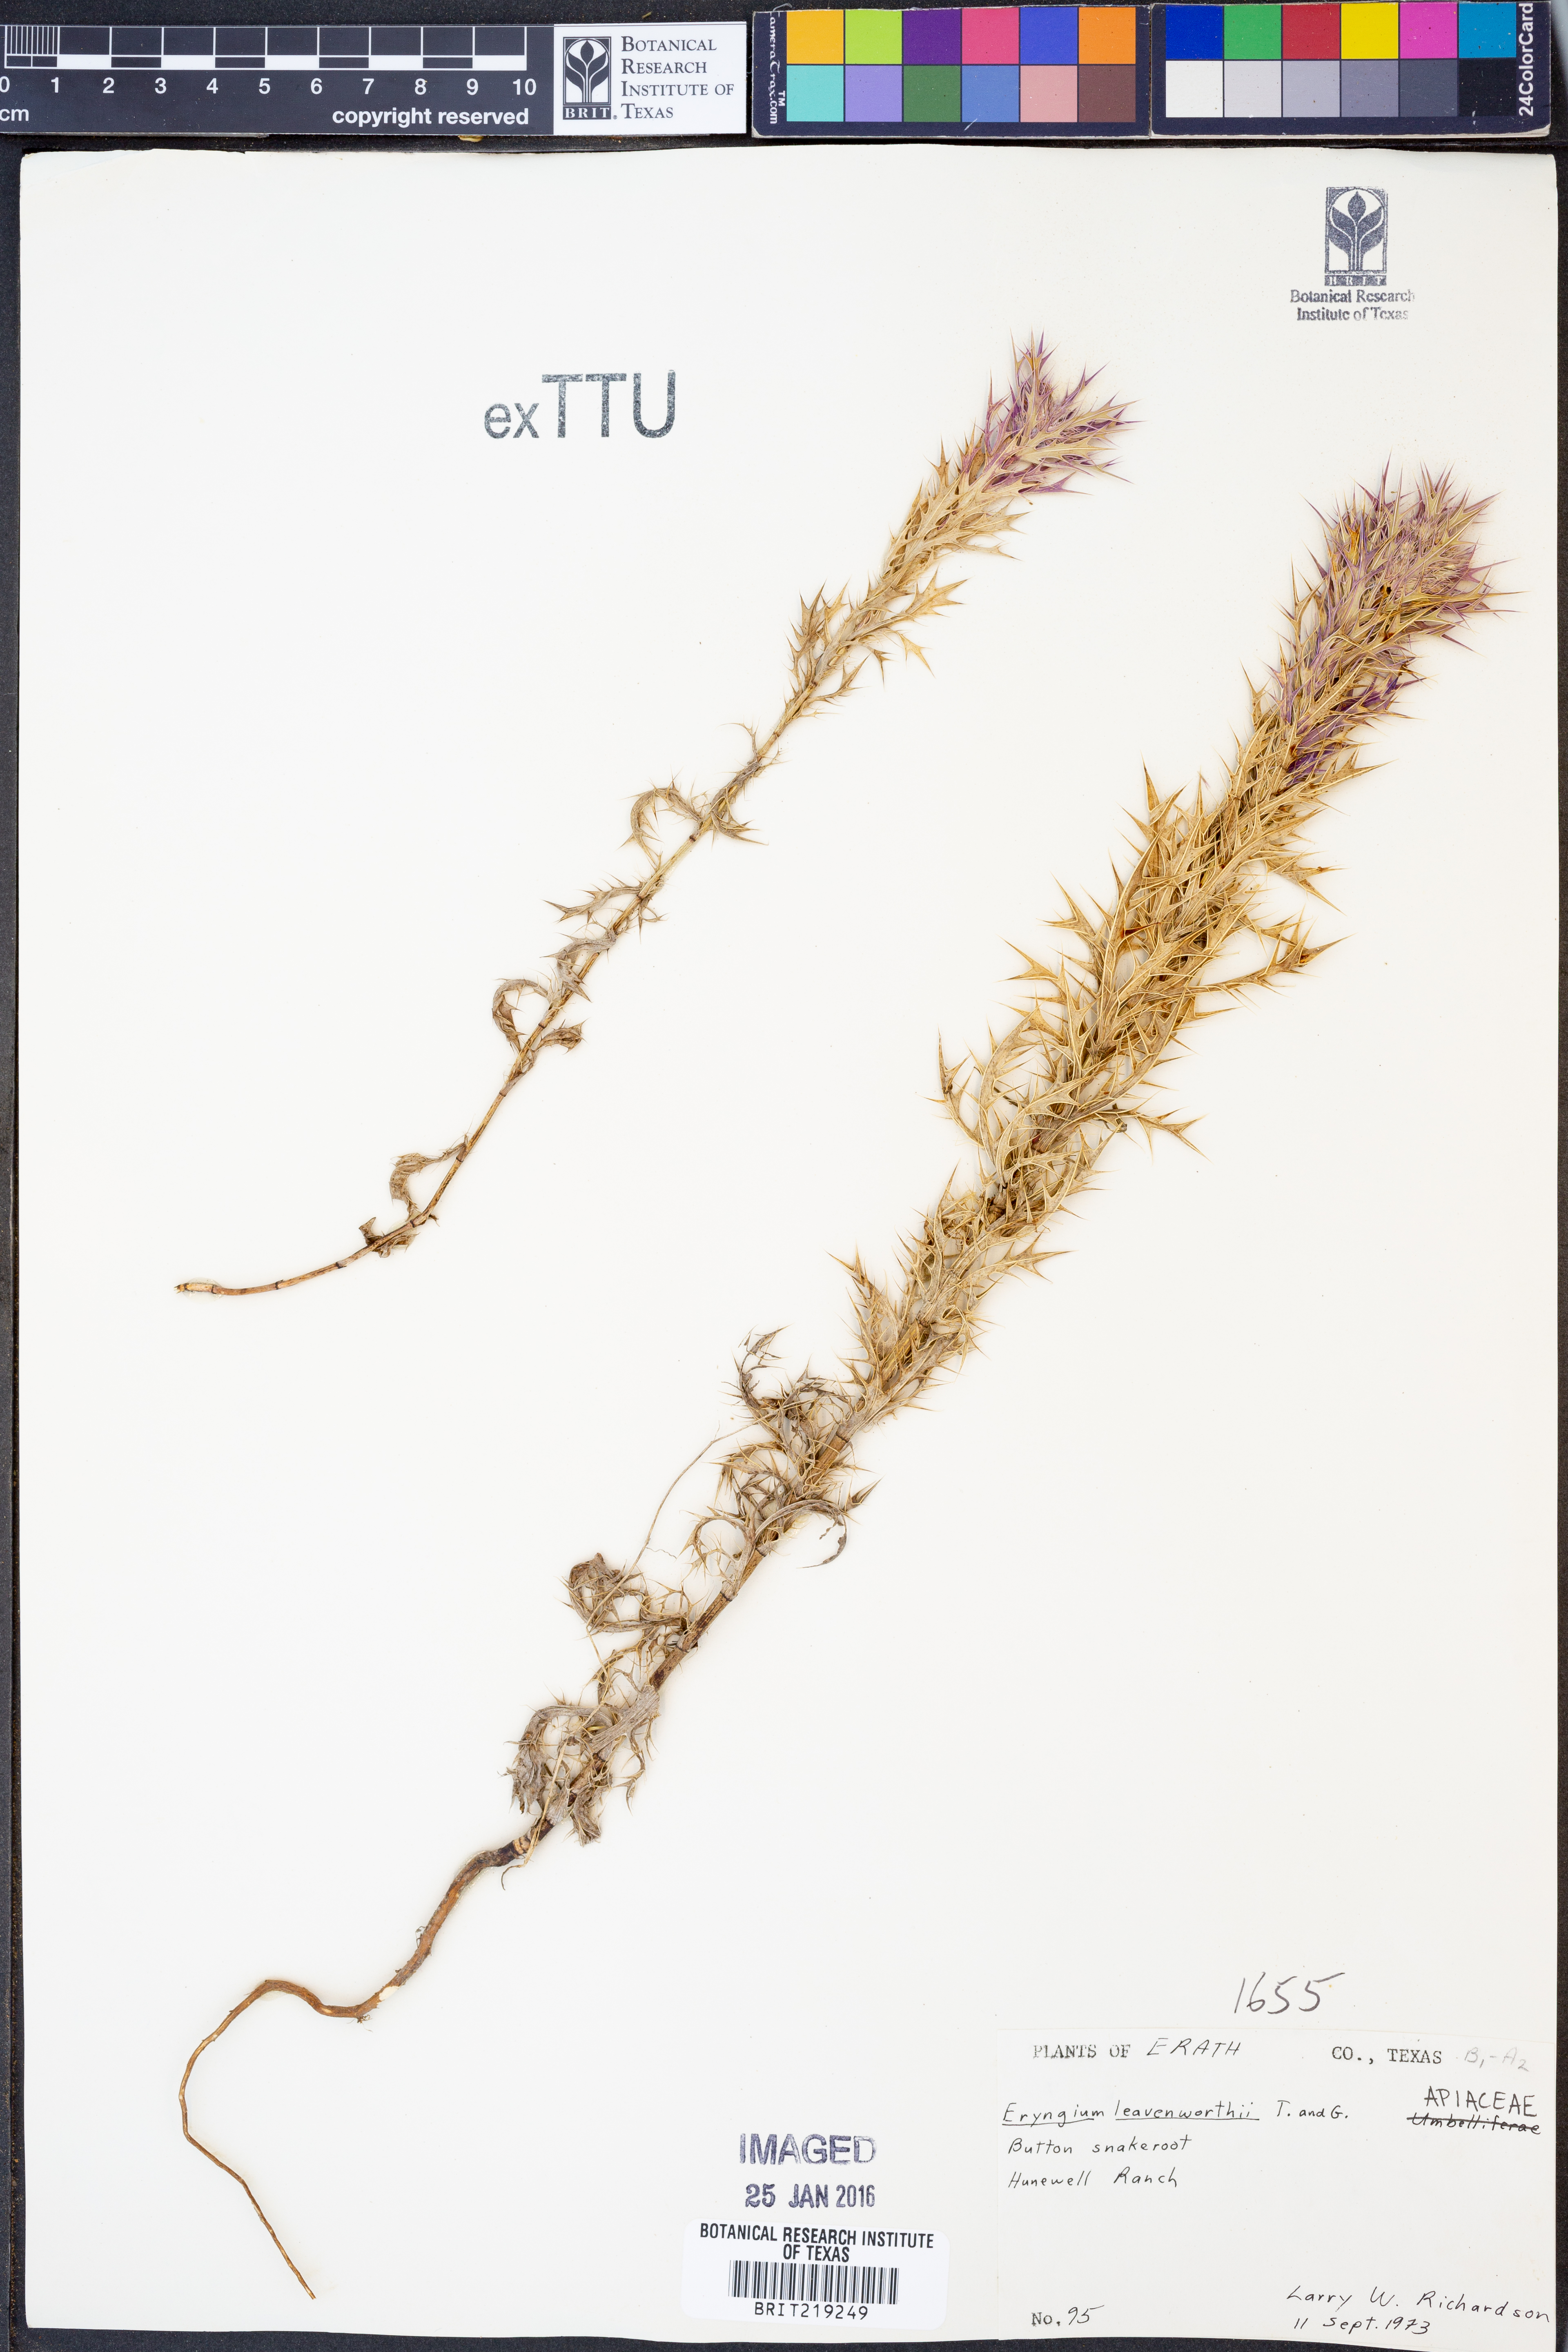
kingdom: Plantae
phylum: Tracheophyta
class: Magnoliopsida
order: Apiales
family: Apiaceae
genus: Eryngium
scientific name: Eryngium leavenworthii
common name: Leavenworth's eryngo
